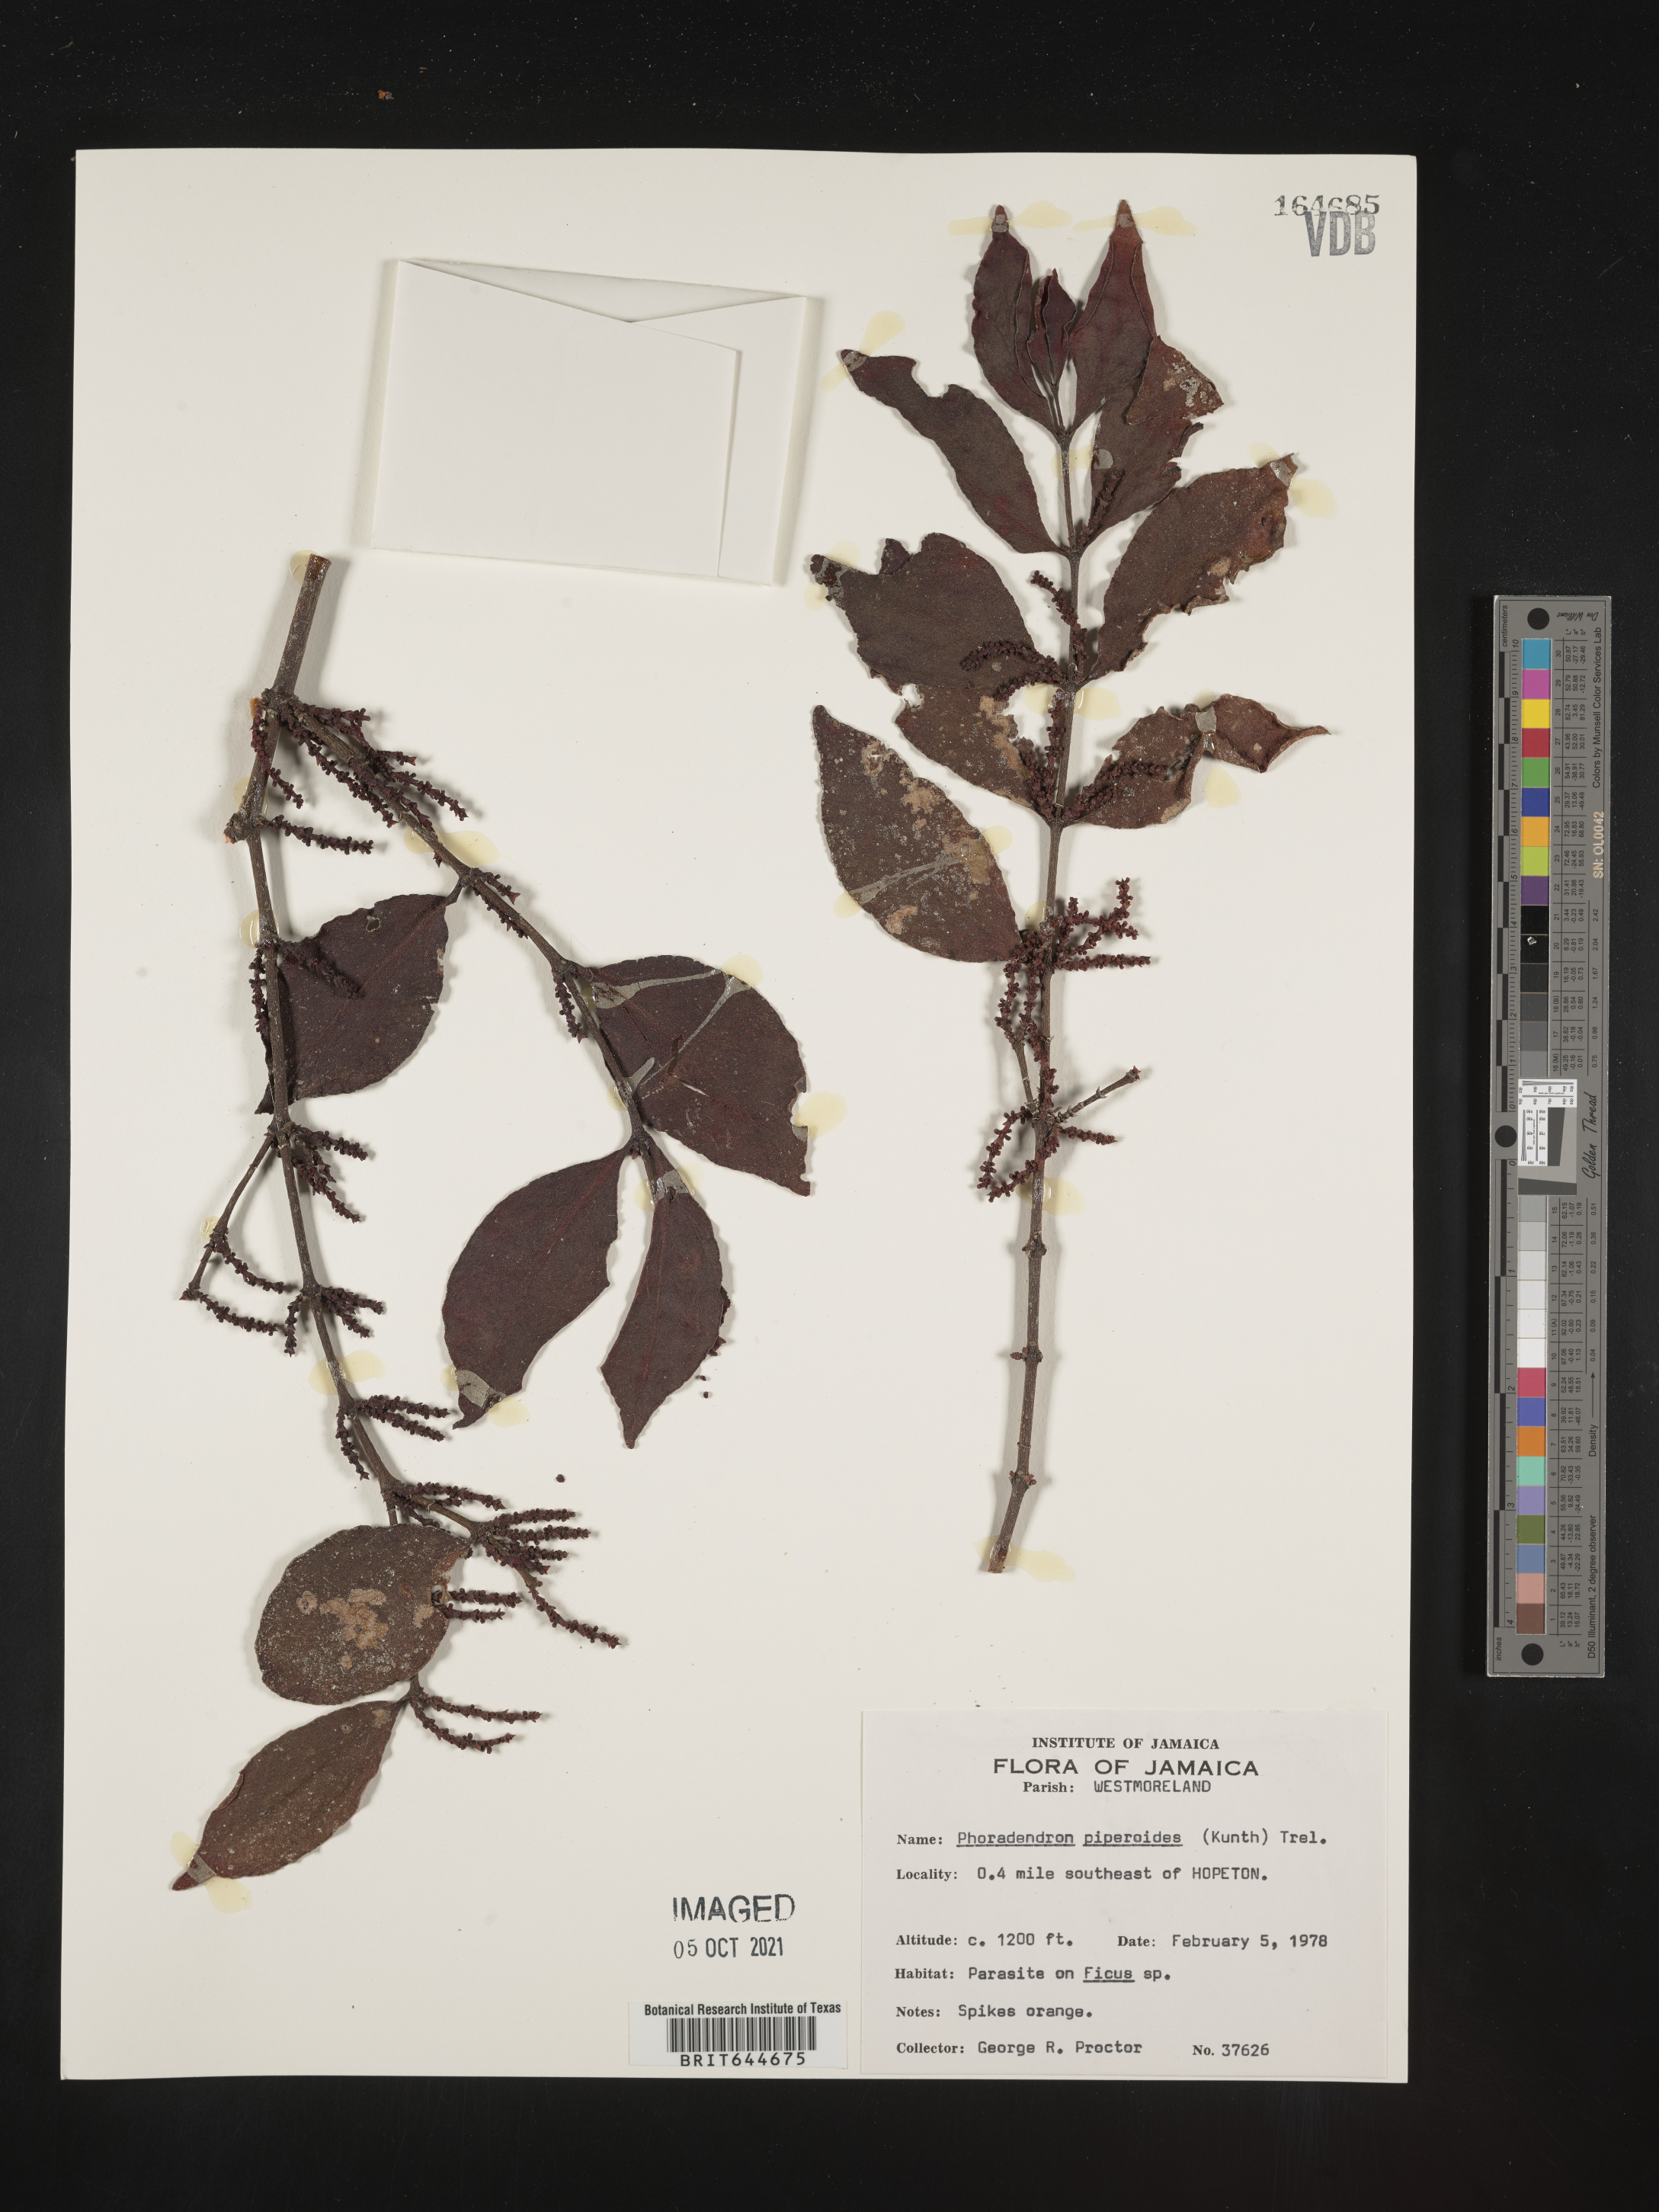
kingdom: Plantae
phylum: Tracheophyta
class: Magnoliopsida
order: Santalales
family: Viscaceae
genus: Phoradendron
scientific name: Phoradendron
